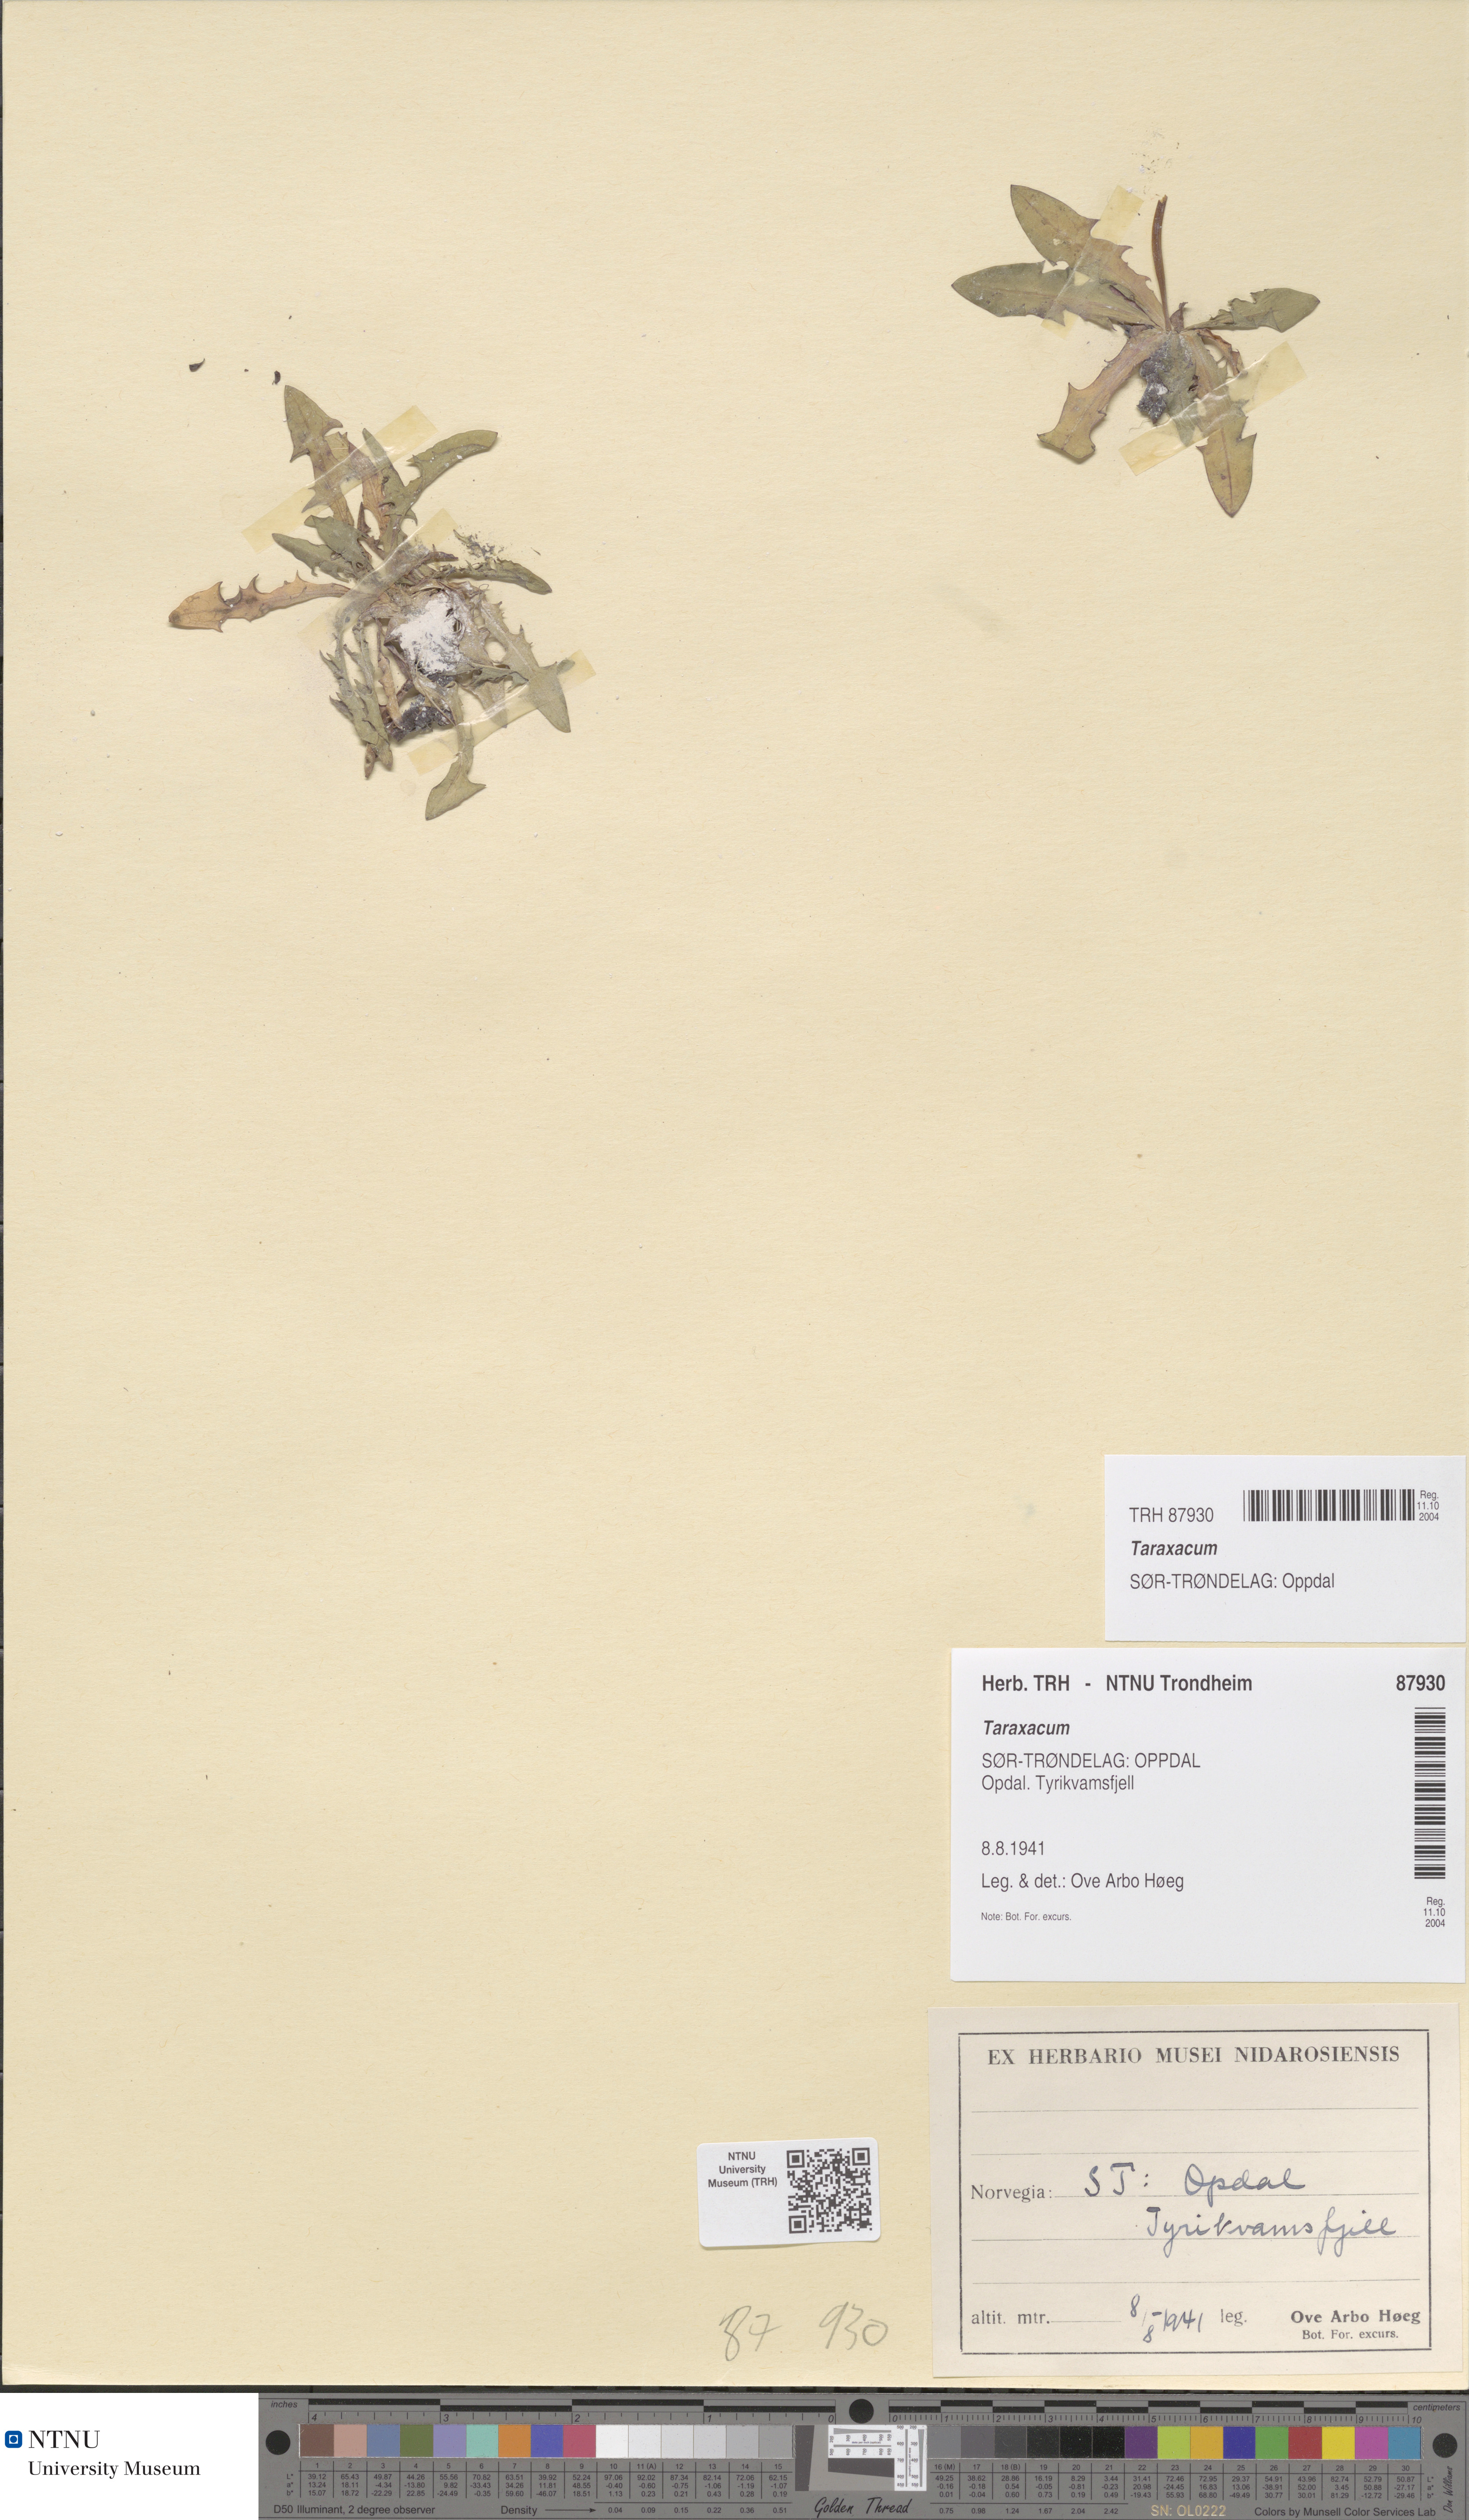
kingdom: Plantae
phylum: Tracheophyta
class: Magnoliopsida
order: Asterales
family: Asteraceae
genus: Taraxacum
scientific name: Taraxacum
